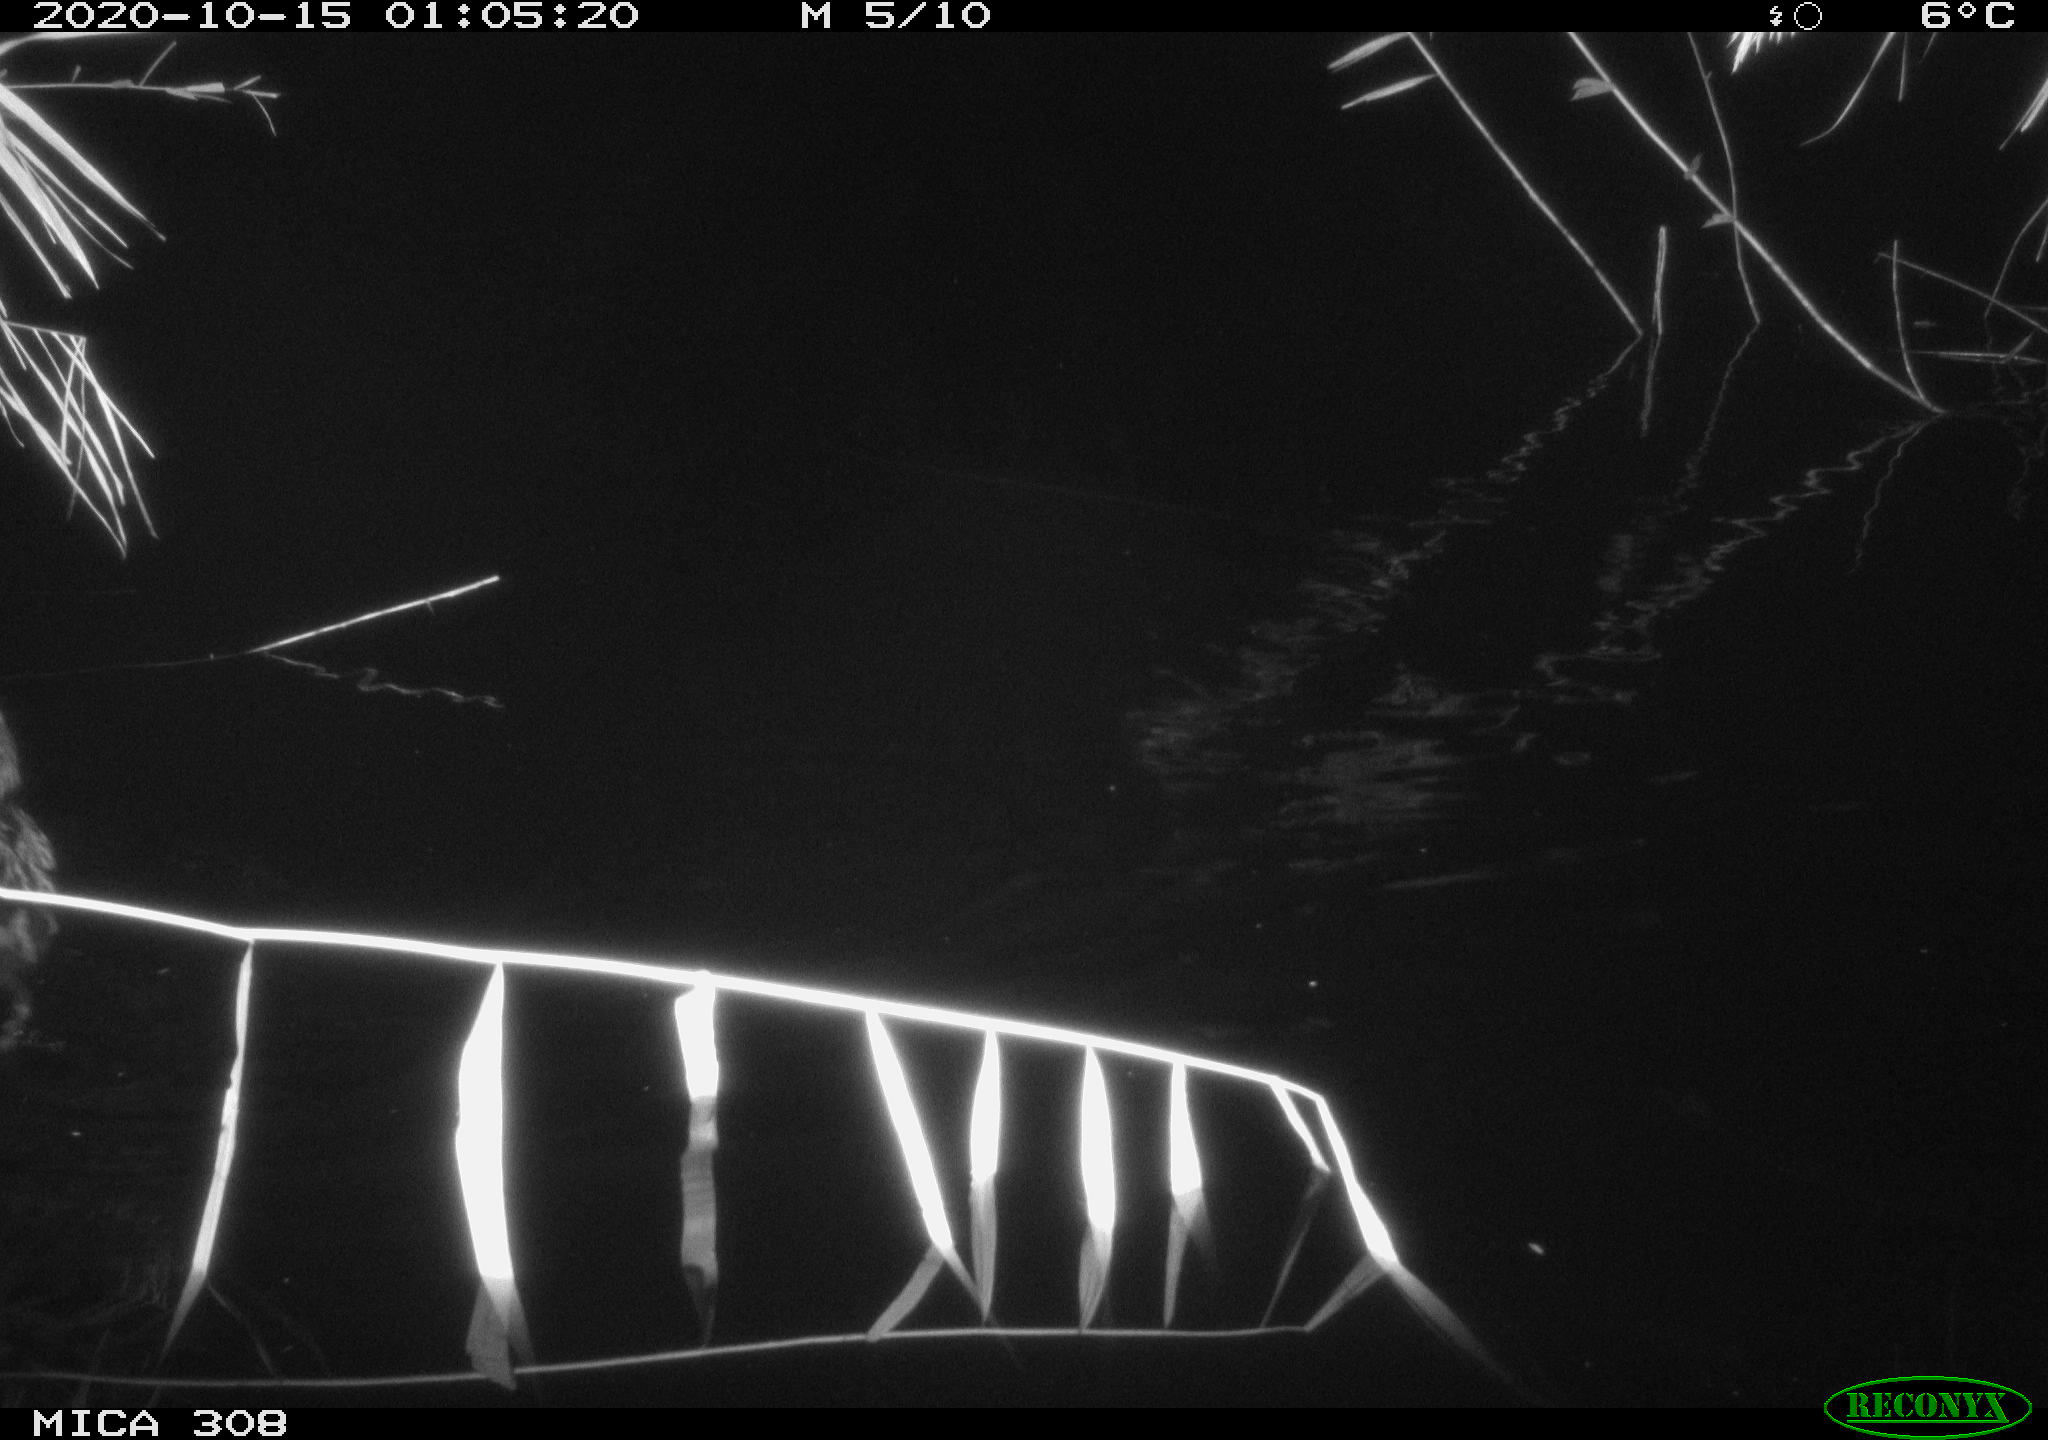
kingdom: Animalia
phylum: Chordata
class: Mammalia
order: Rodentia
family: Cricetidae
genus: Ondatra
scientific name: Ondatra zibethicus
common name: Muskrat
